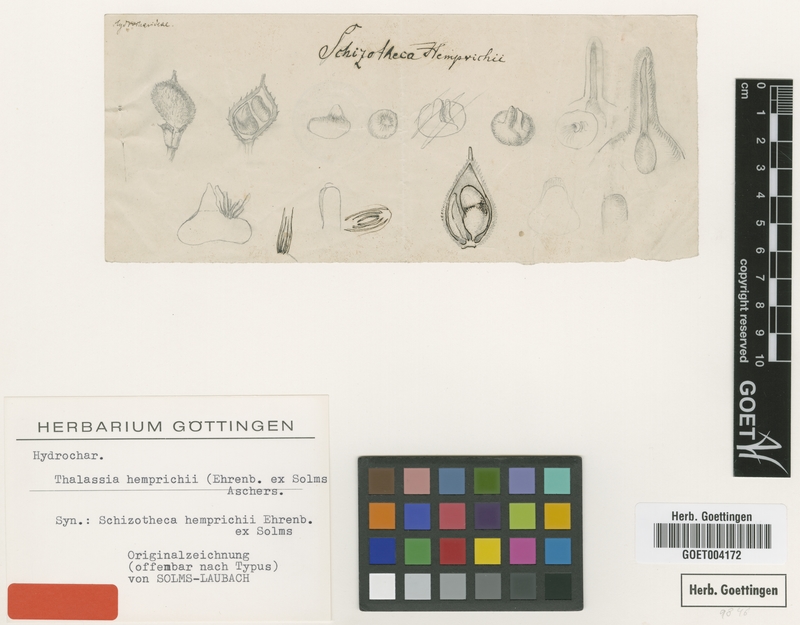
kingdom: Plantae
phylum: Tracheophyta
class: Liliopsida
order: Alismatales
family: Hydrocharitaceae
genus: Thalassia
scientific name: Thalassia hemprichii
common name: Species code: th
